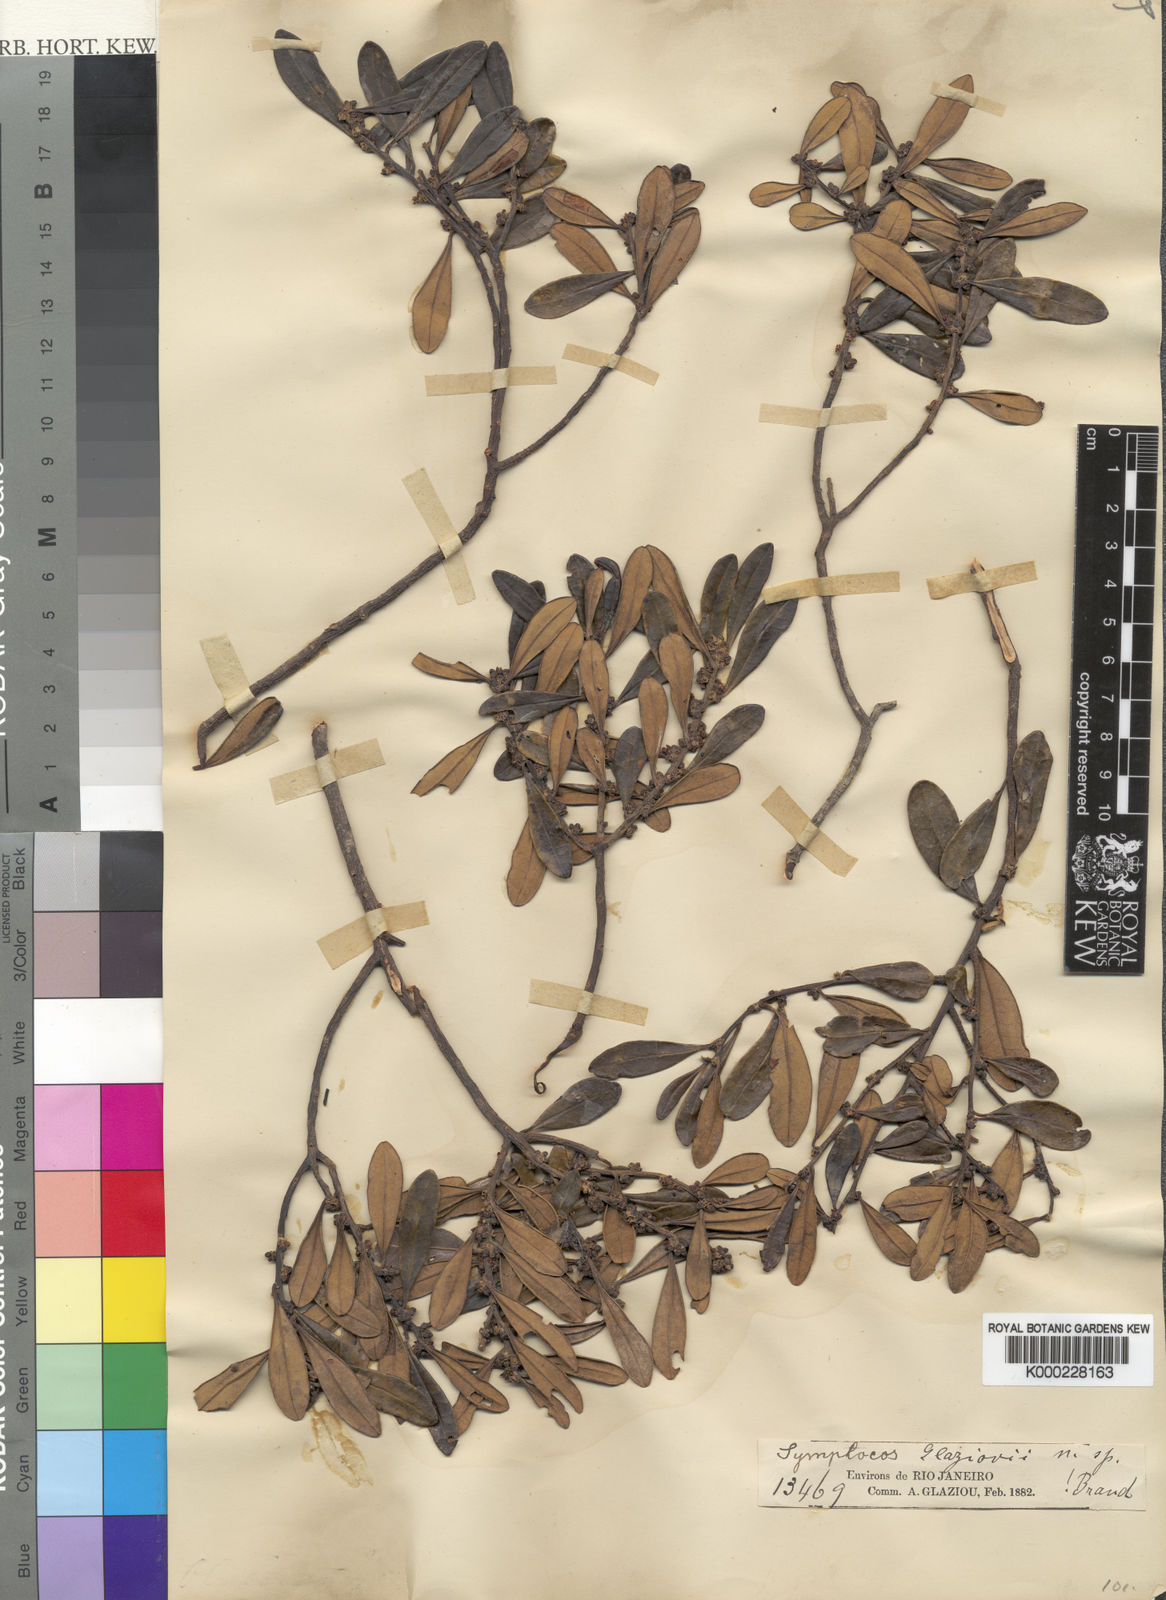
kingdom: Plantae
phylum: Tracheophyta
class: Magnoliopsida
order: Ericales
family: Symplocaceae
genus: Symplocos
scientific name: Symplocos glaziovii
